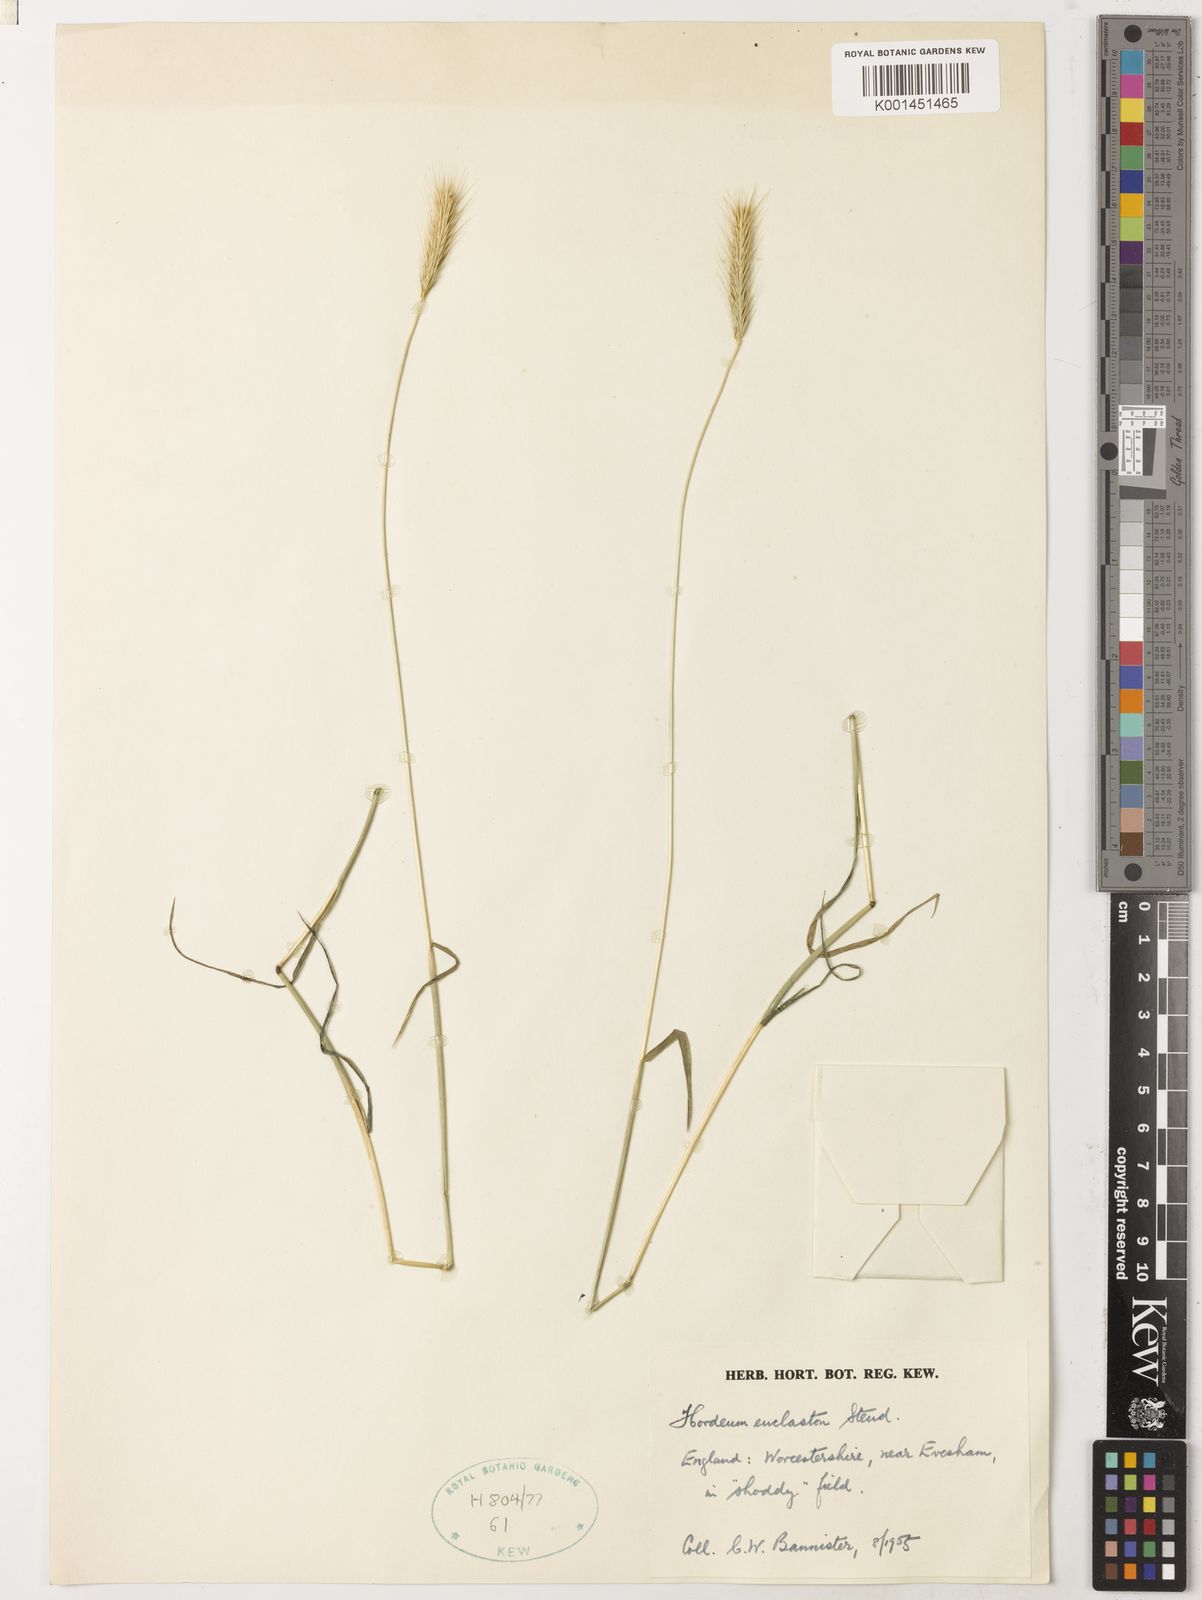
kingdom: Plantae
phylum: Tracheophyta
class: Liliopsida
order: Poales
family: Poaceae
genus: Hordeum
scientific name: Hordeum euclaston
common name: Argentine barley
